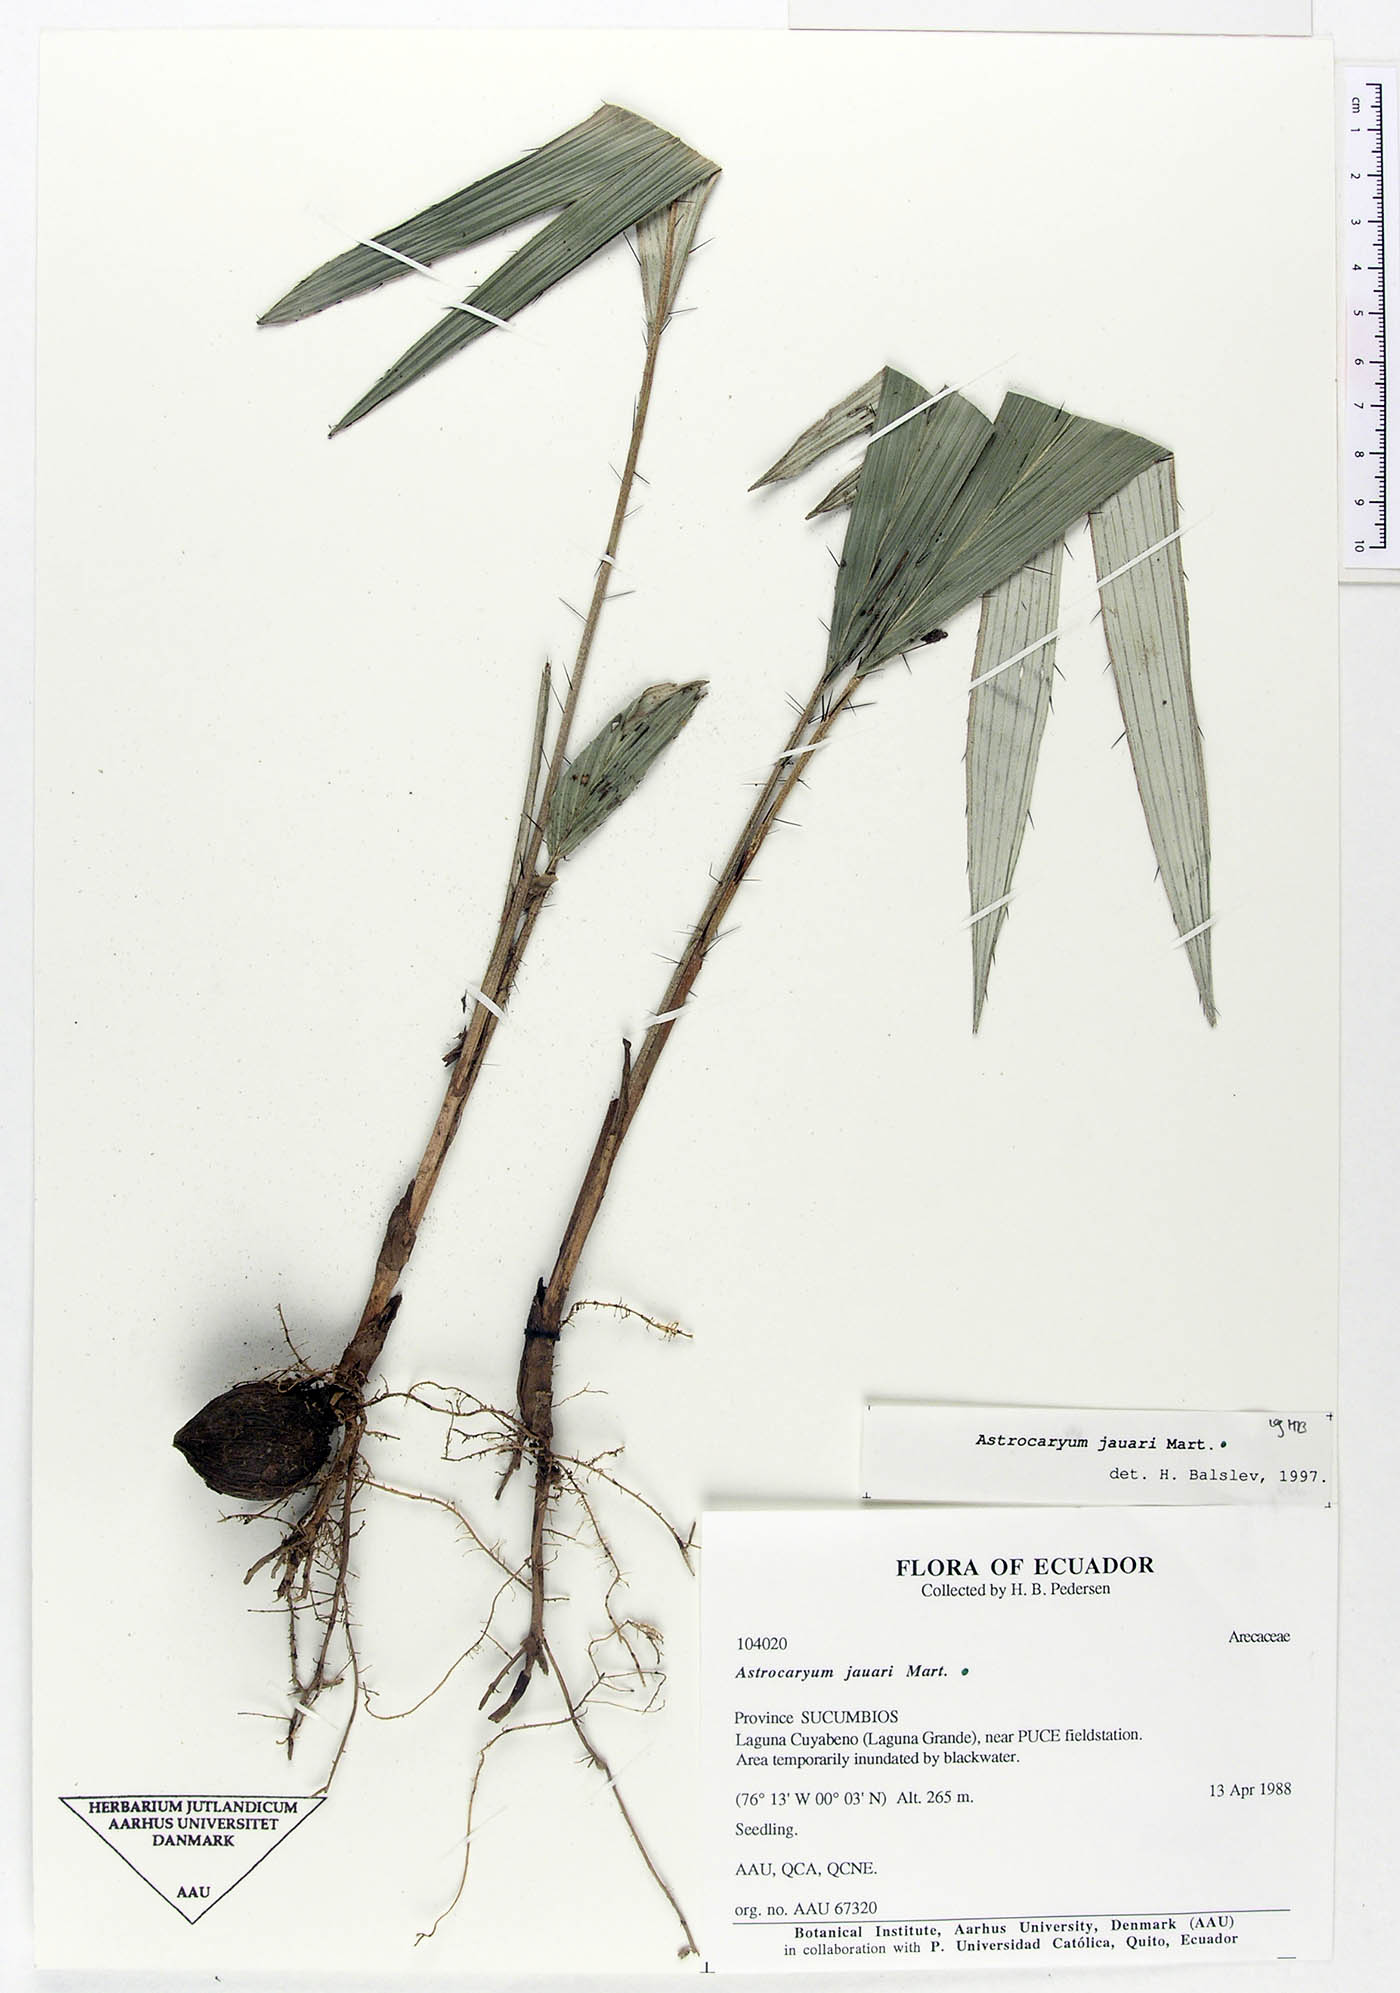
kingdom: Plantae
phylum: Tracheophyta
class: Liliopsida
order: Arecales
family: Arecaceae
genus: Astrocaryum
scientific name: Astrocaryum jauari
